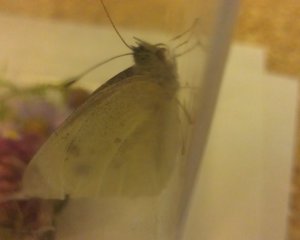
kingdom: Animalia
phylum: Arthropoda
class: Insecta
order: Lepidoptera
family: Pieridae
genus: Pieris
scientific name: Pieris rapae
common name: Cabbage White
